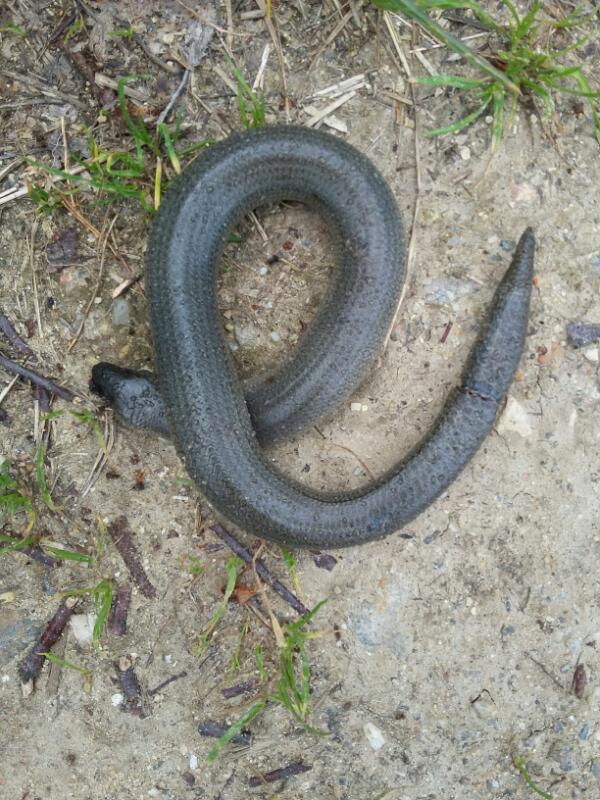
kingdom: Animalia
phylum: Chordata
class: Squamata
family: Anguidae
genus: Anguis
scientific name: Anguis fragilis
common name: Slow worm
